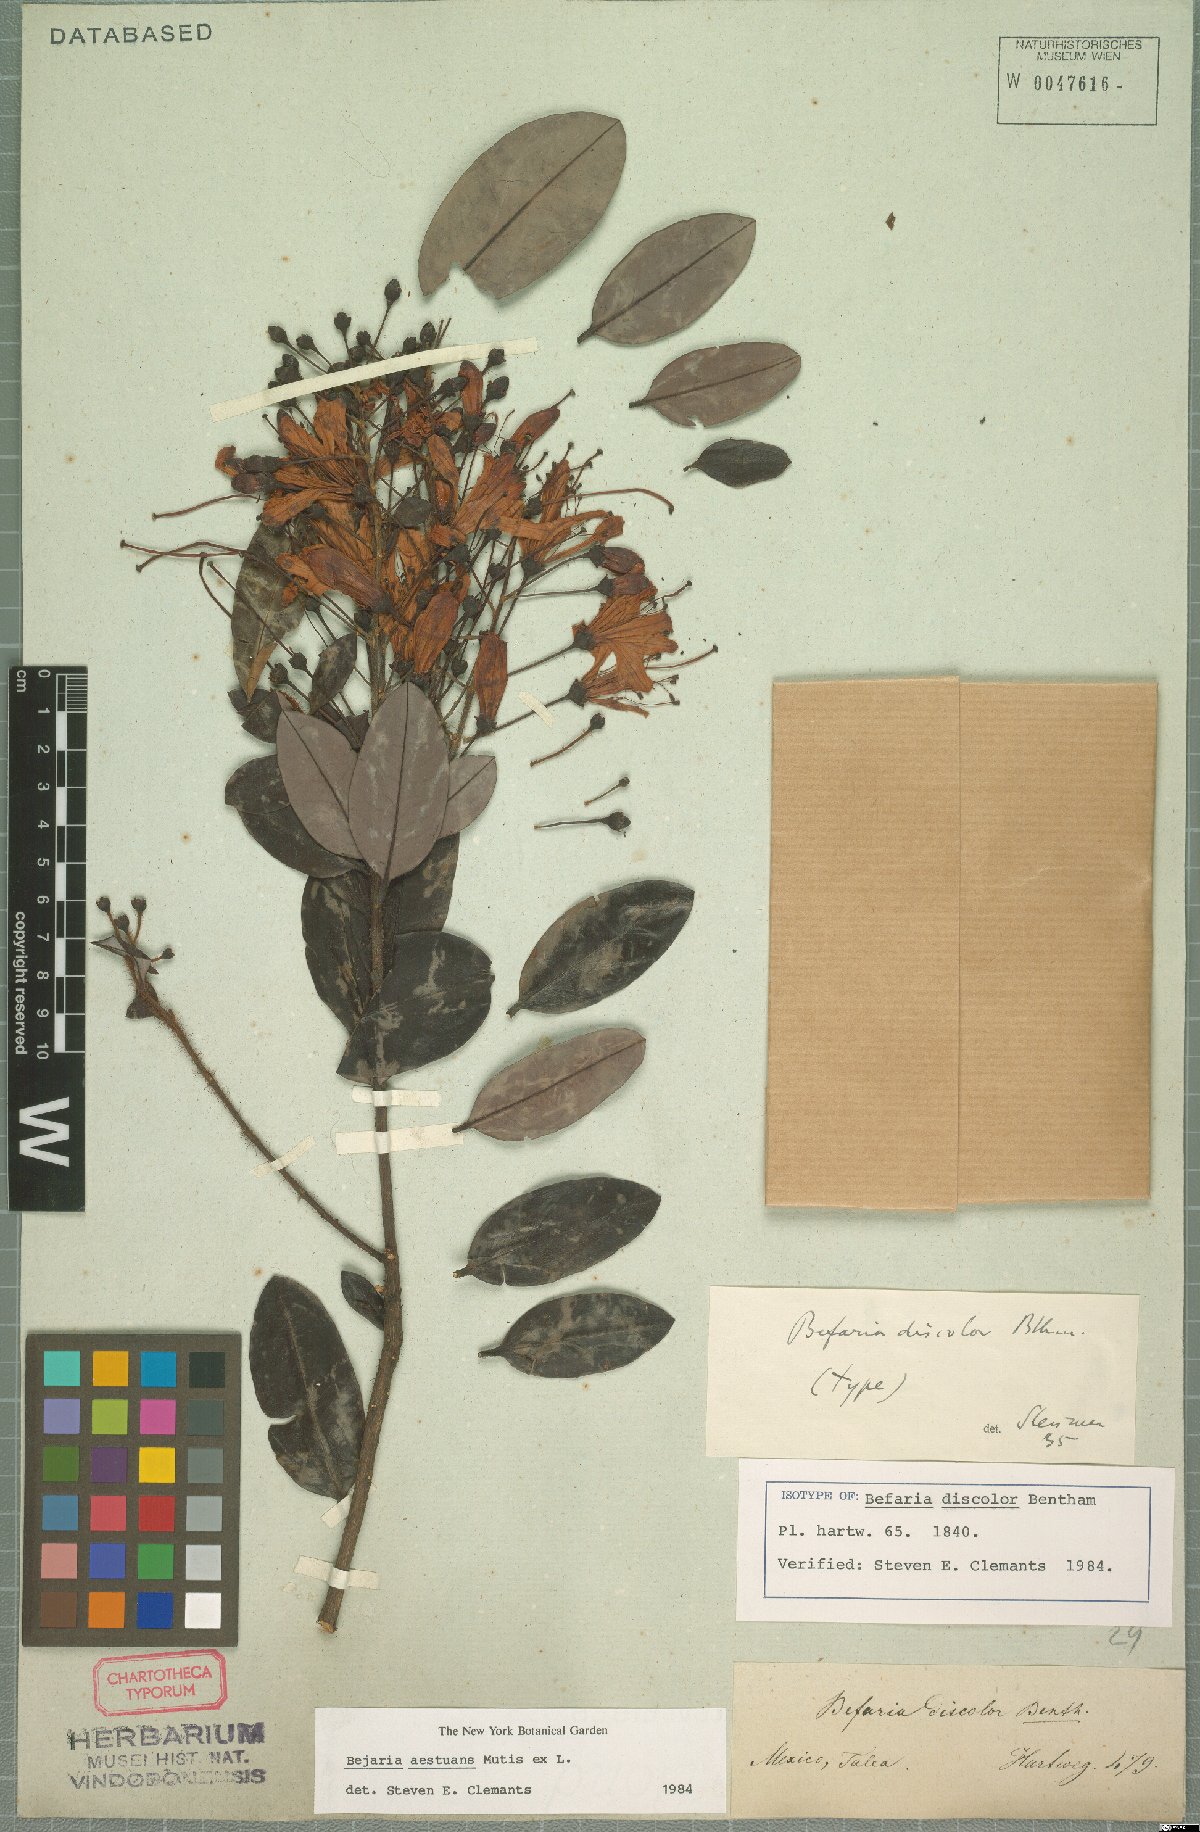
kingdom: Plantae
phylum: Tracheophyta
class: Magnoliopsida
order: Ericales
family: Ericaceae
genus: Bejaria
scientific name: Bejaria aestuans
